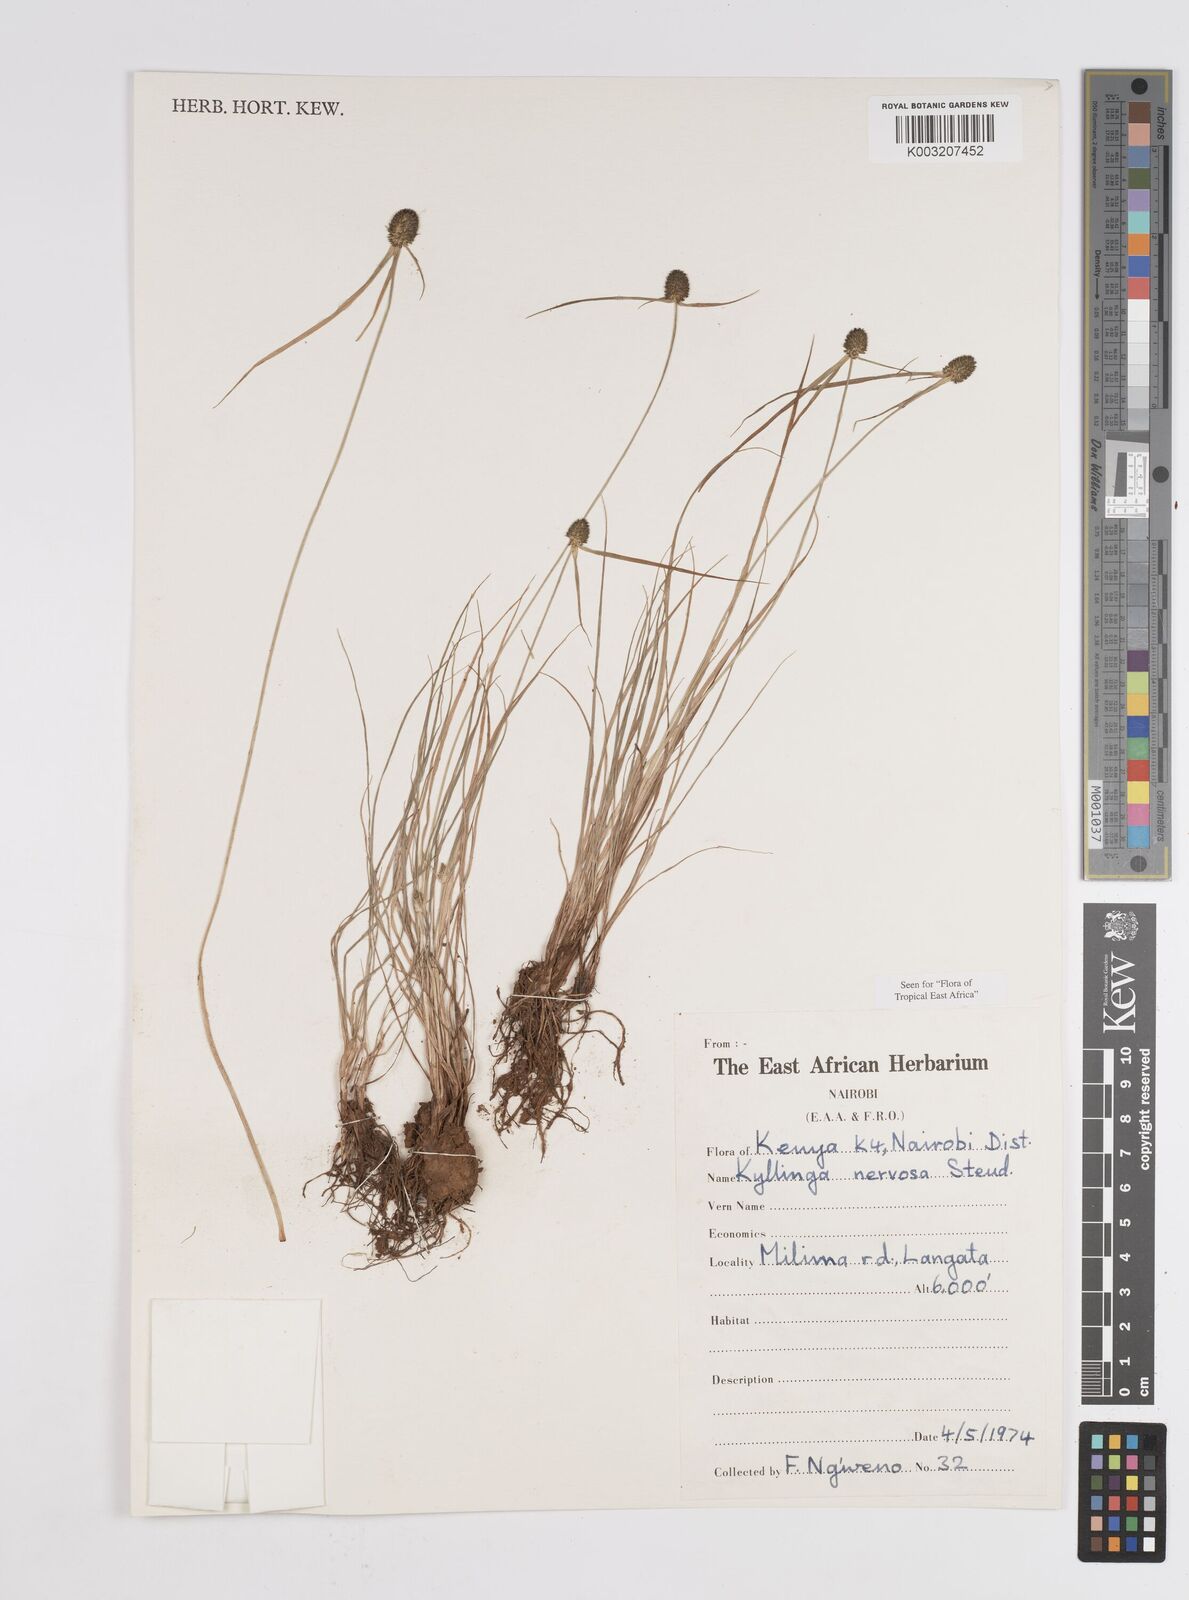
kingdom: Plantae
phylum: Tracheophyta
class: Liliopsida
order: Poales
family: Cyperaceae
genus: Cyperus
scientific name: Cyperus
